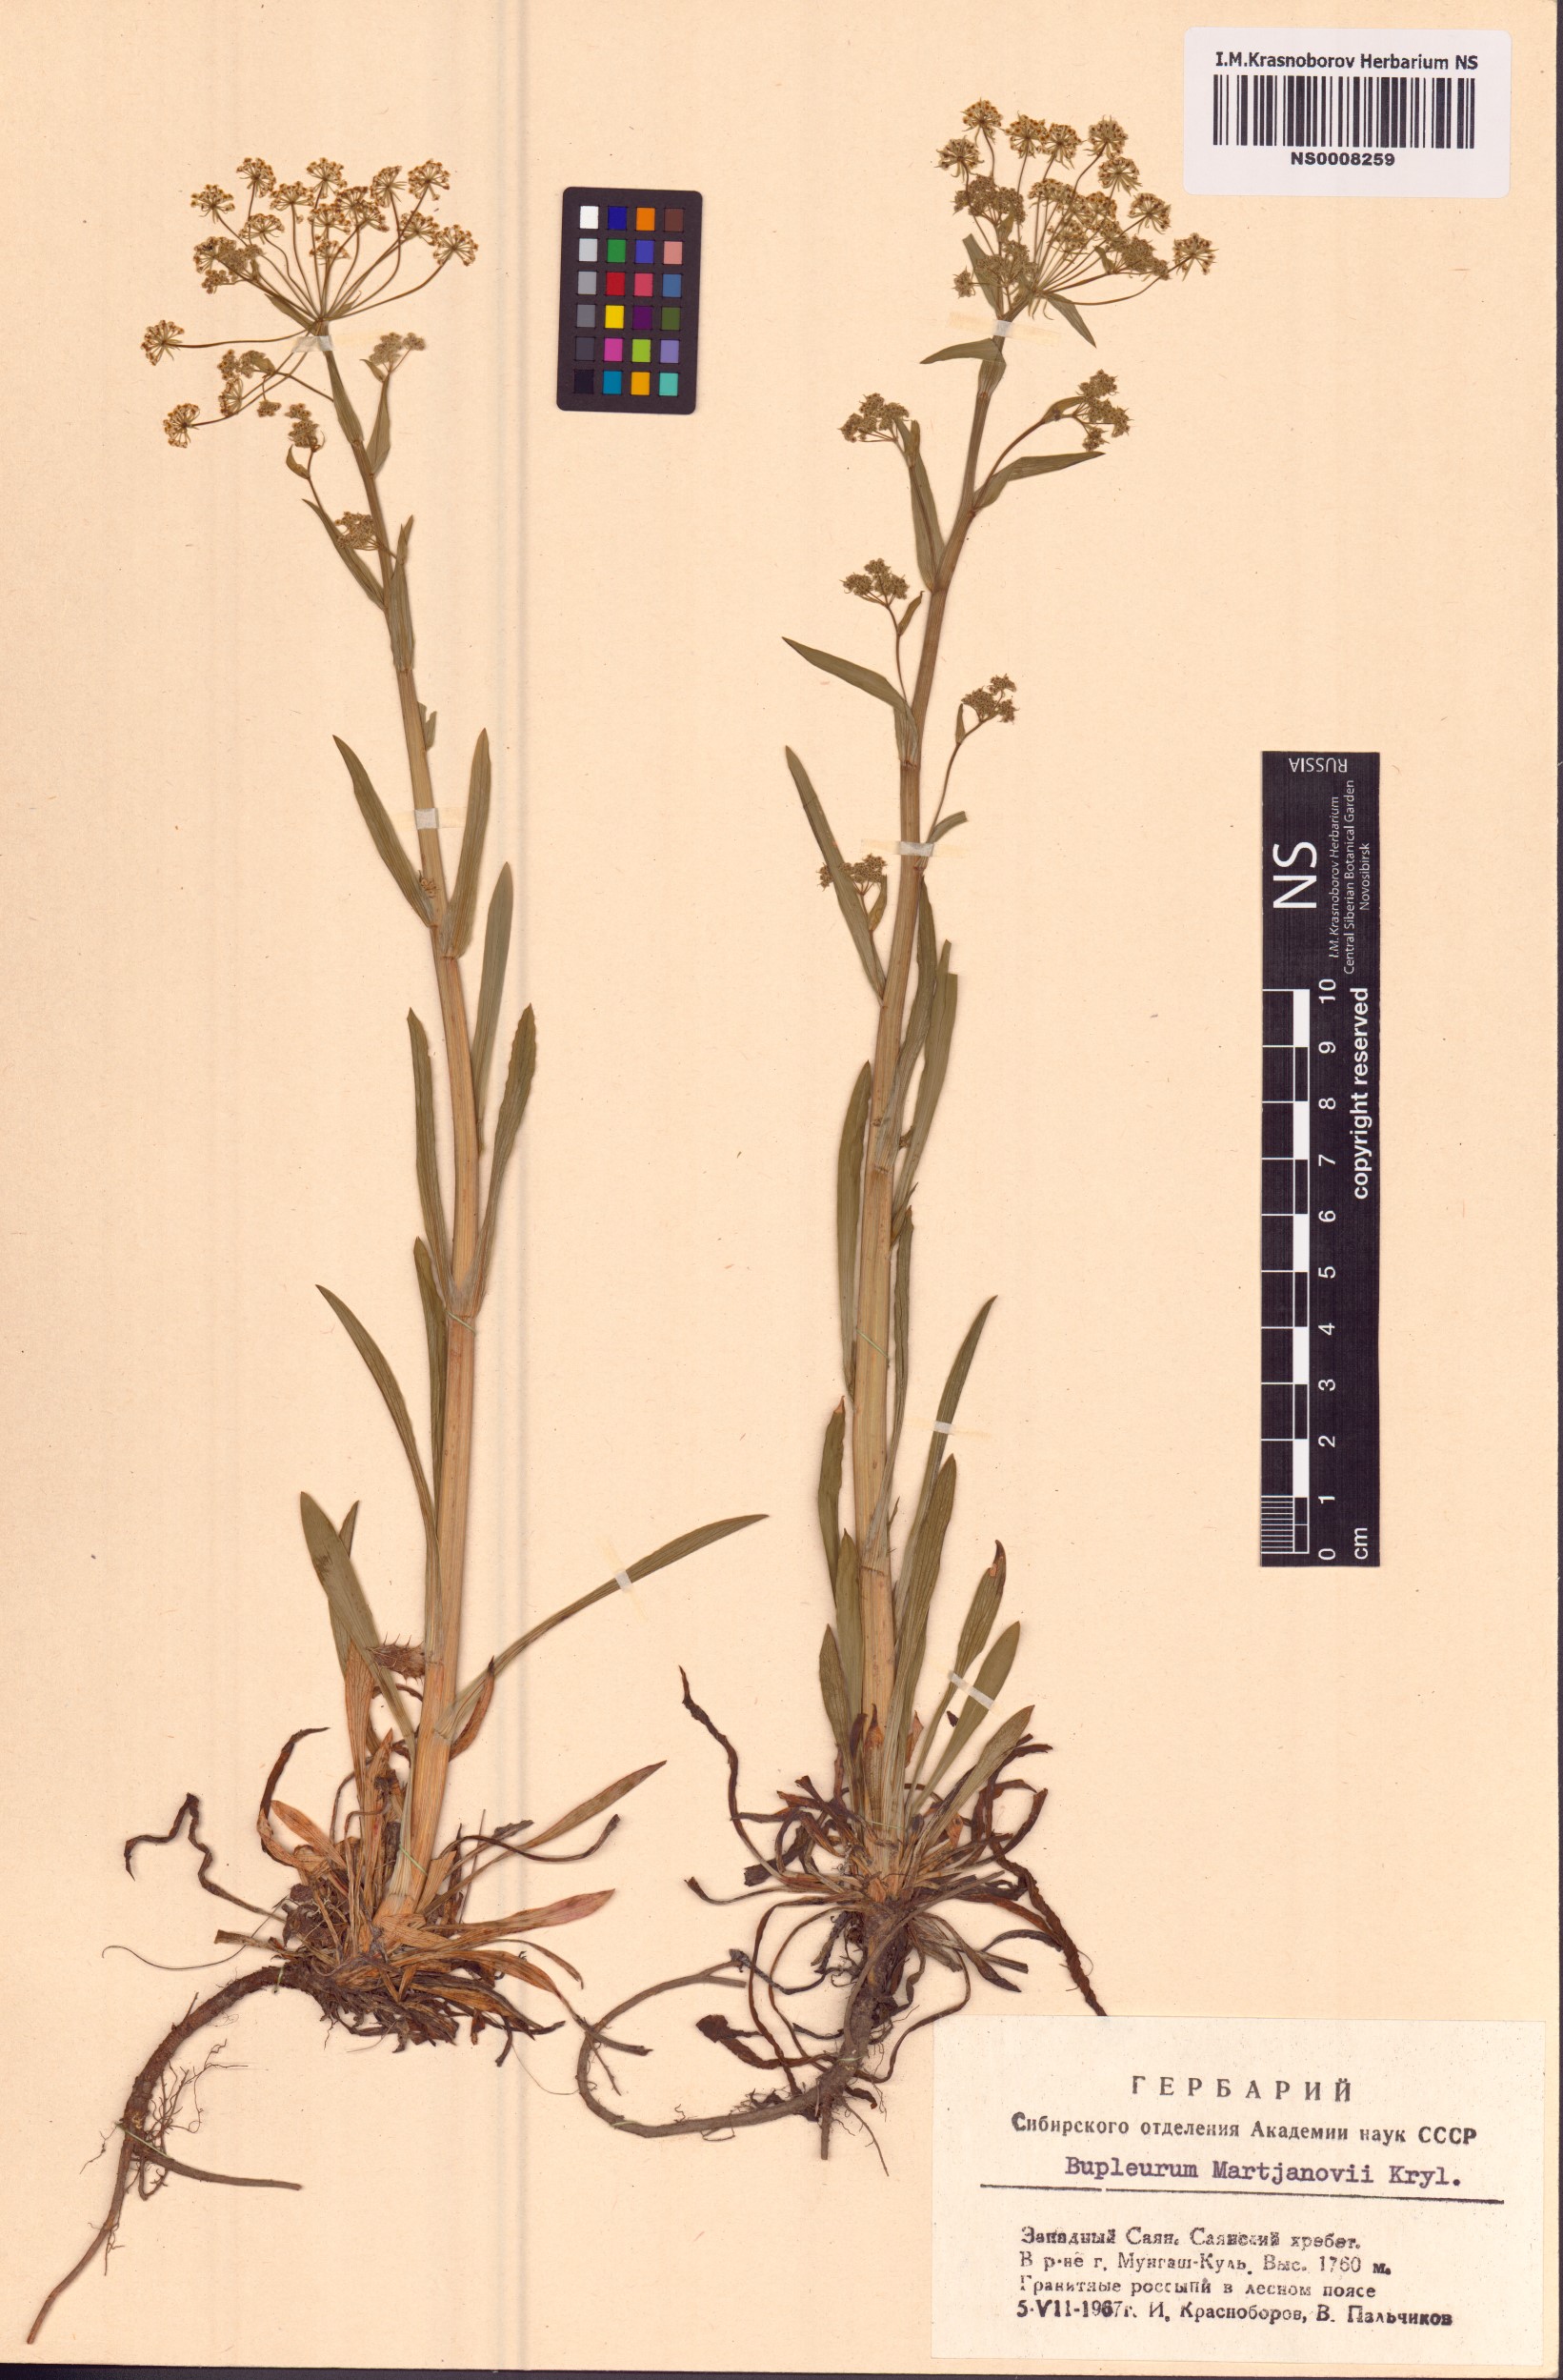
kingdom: Plantae
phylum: Tracheophyta
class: Magnoliopsida
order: Apiales
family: Apiaceae
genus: Bupleurum
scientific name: Bupleurum martjanovii
